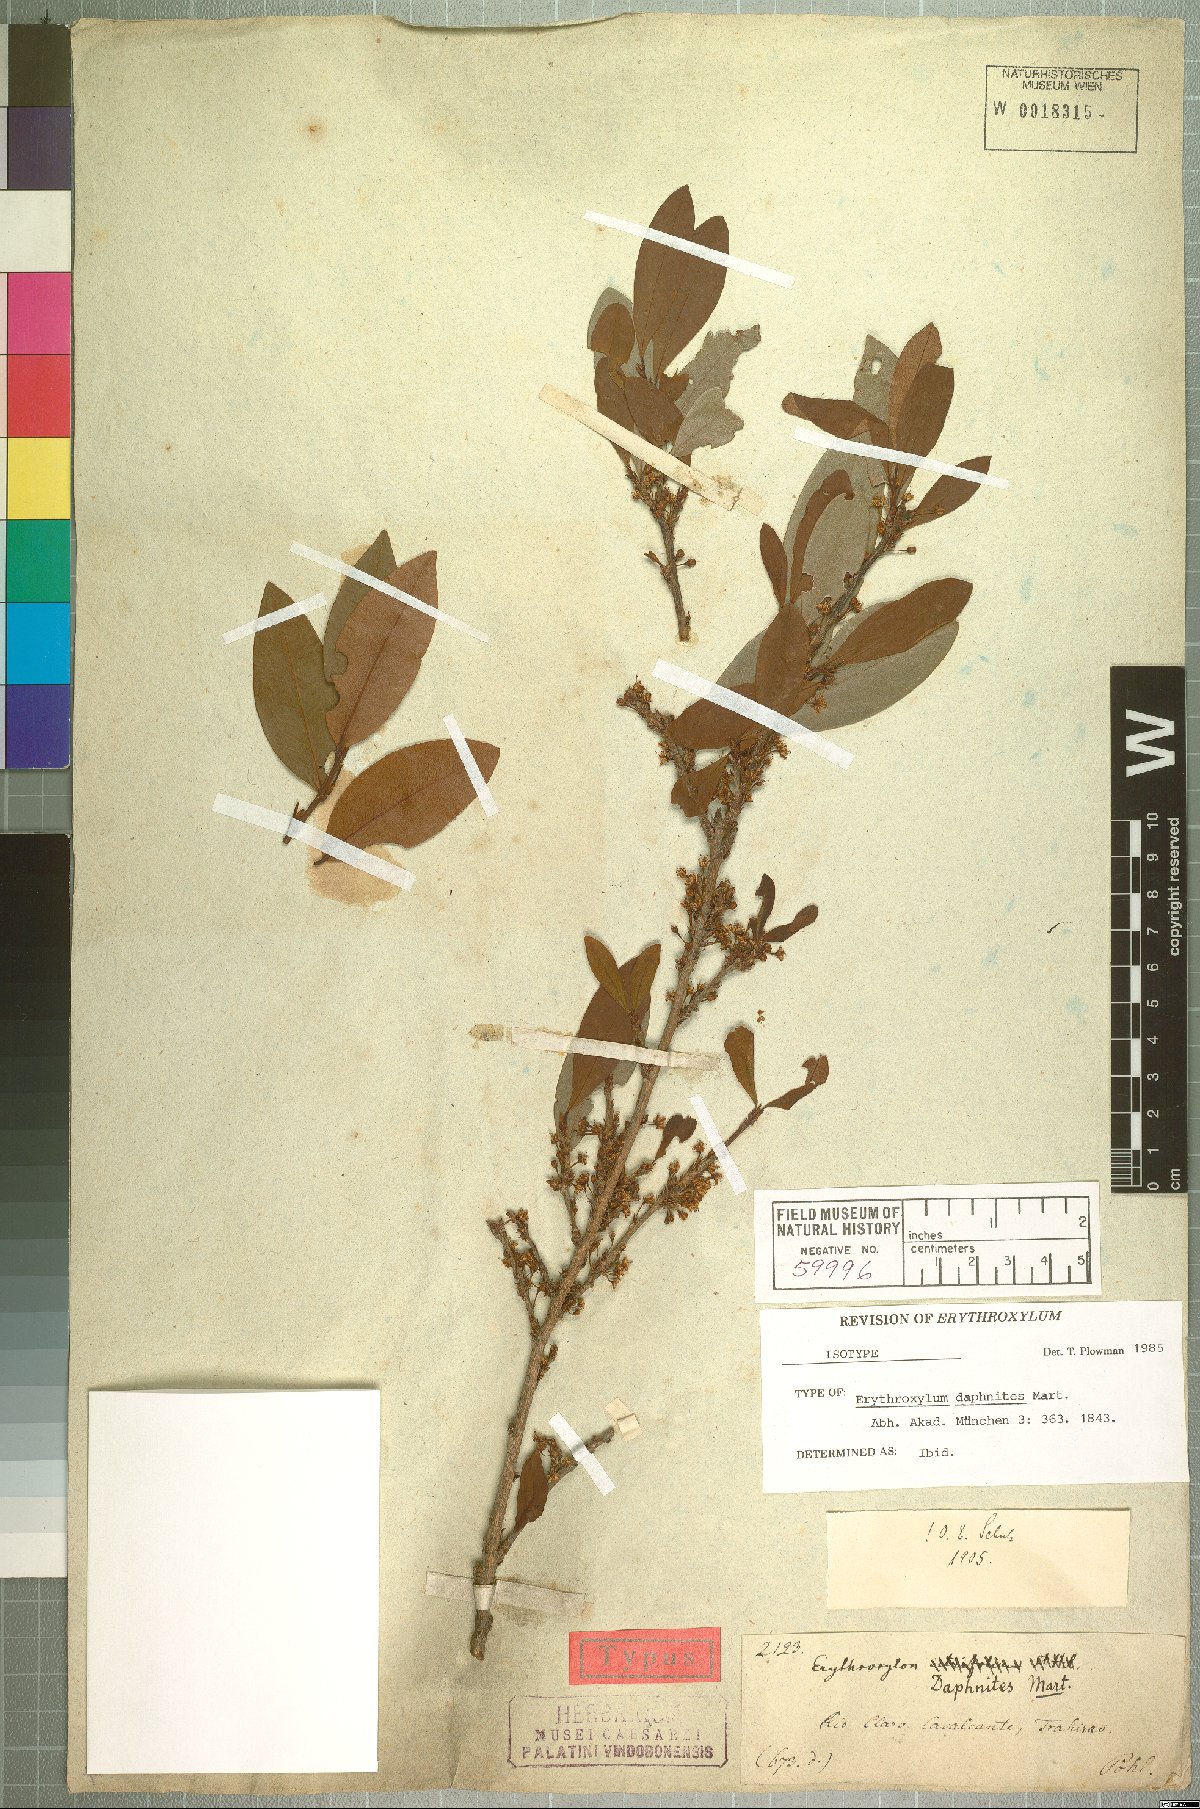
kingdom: Plantae
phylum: Tracheophyta
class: Magnoliopsida
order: Malpighiales
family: Erythroxylaceae
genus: Erythroxylum
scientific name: Erythroxylum daphnites
